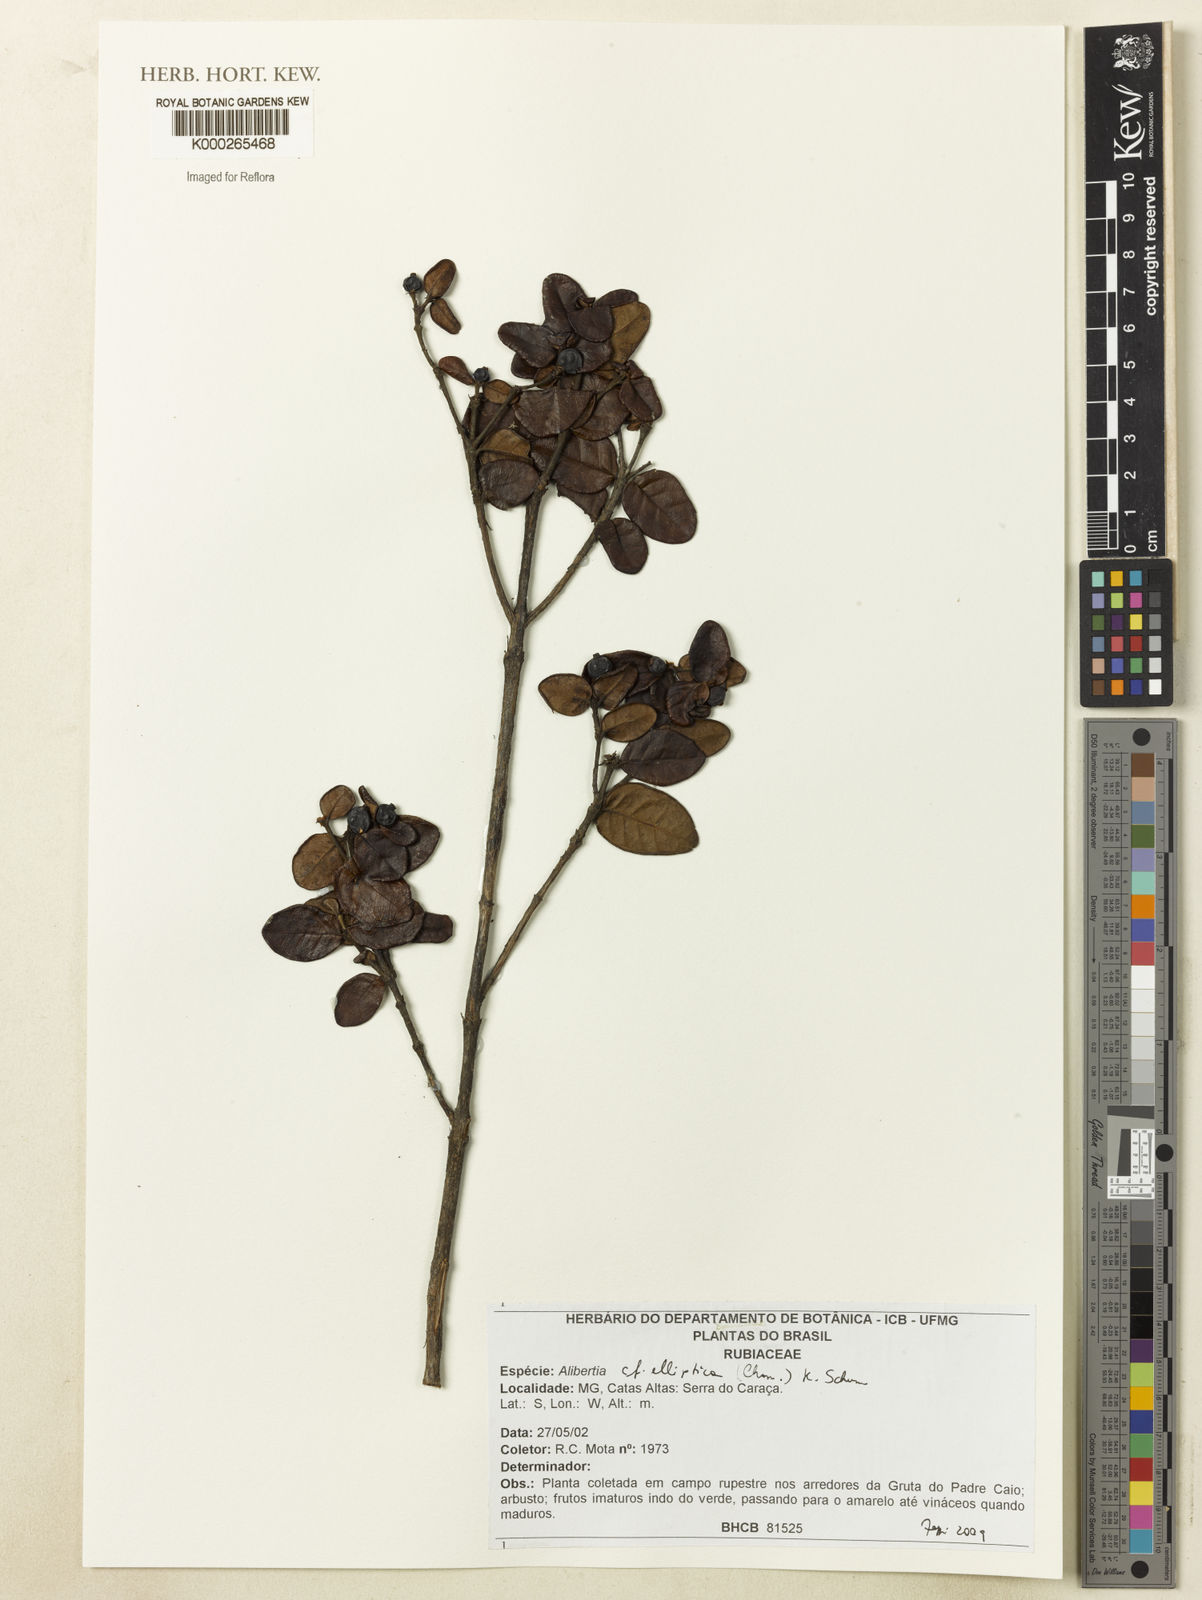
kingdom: Plantae
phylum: Tracheophyta
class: Magnoliopsida
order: Gentianales
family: Rubiaceae
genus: Cordiera
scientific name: Cordiera elliptica
